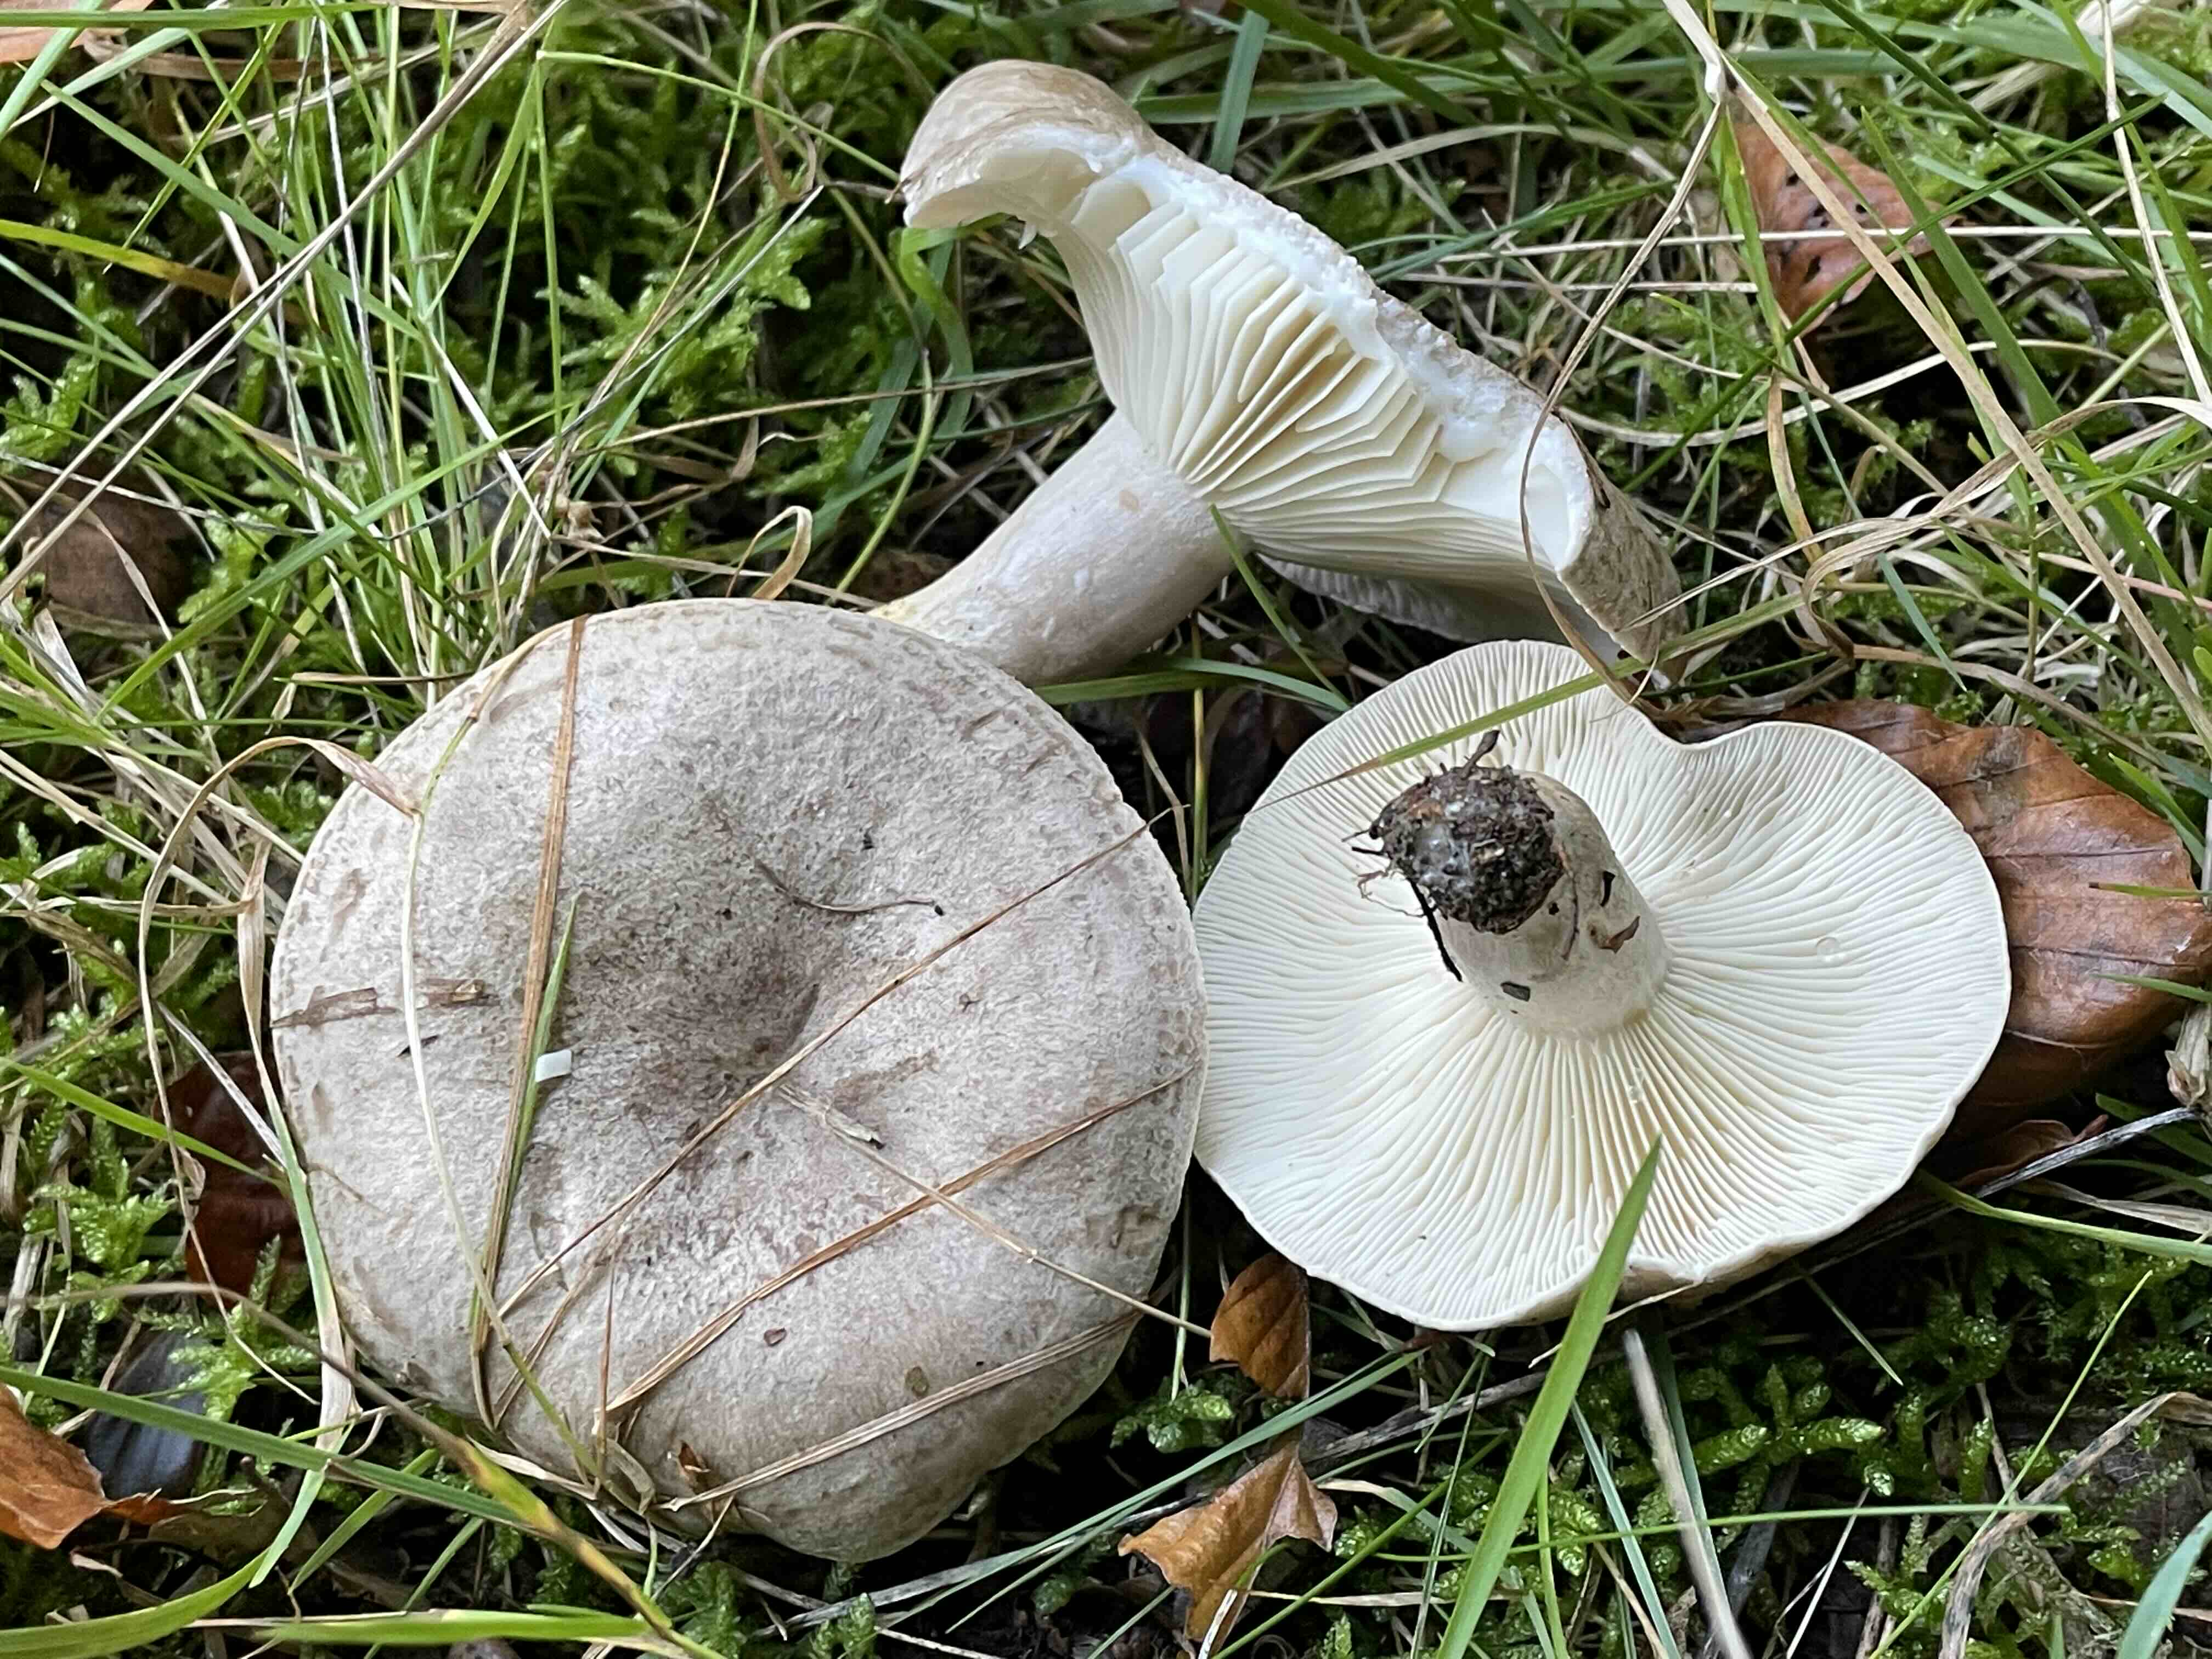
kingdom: Fungi
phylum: Basidiomycota
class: Agaricomycetes
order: Russulales
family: Russulaceae
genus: Lactarius
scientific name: Lactarius blennius
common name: dråbeplettet mælkehat
